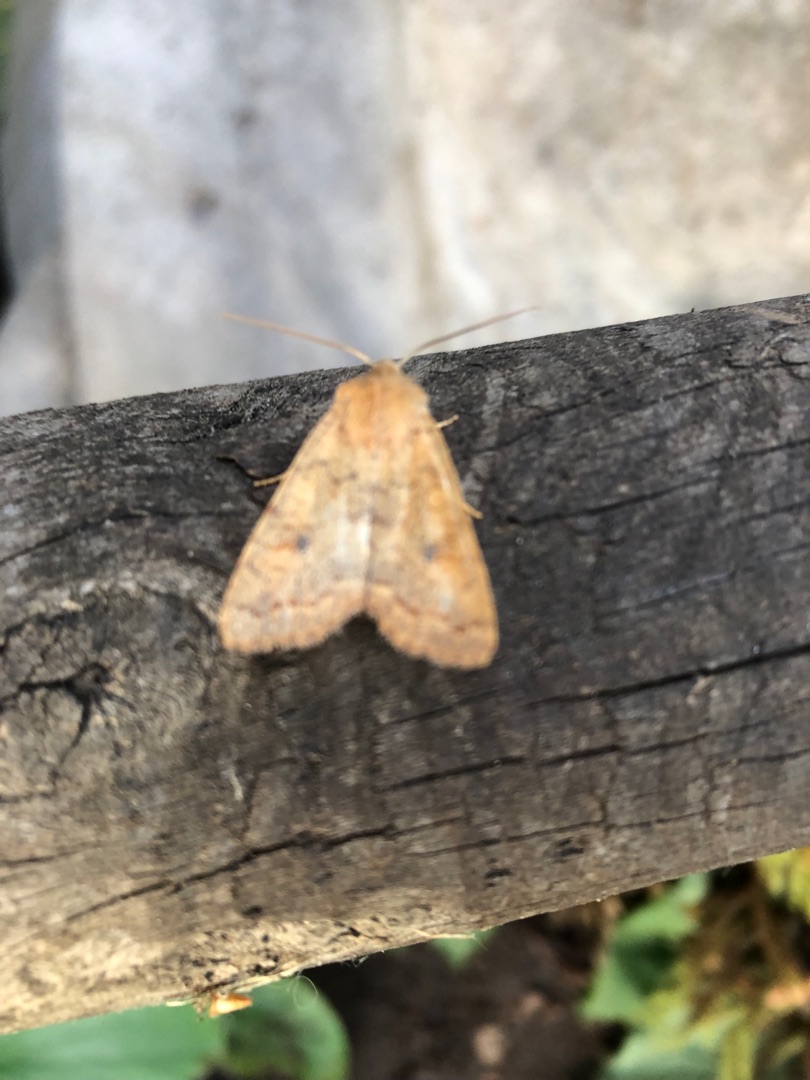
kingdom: Animalia
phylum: Arthropoda
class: Insecta
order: Lepidoptera
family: Noctuidae
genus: Sunira
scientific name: Sunira circellaris
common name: Cirkel-jordfarveugle
